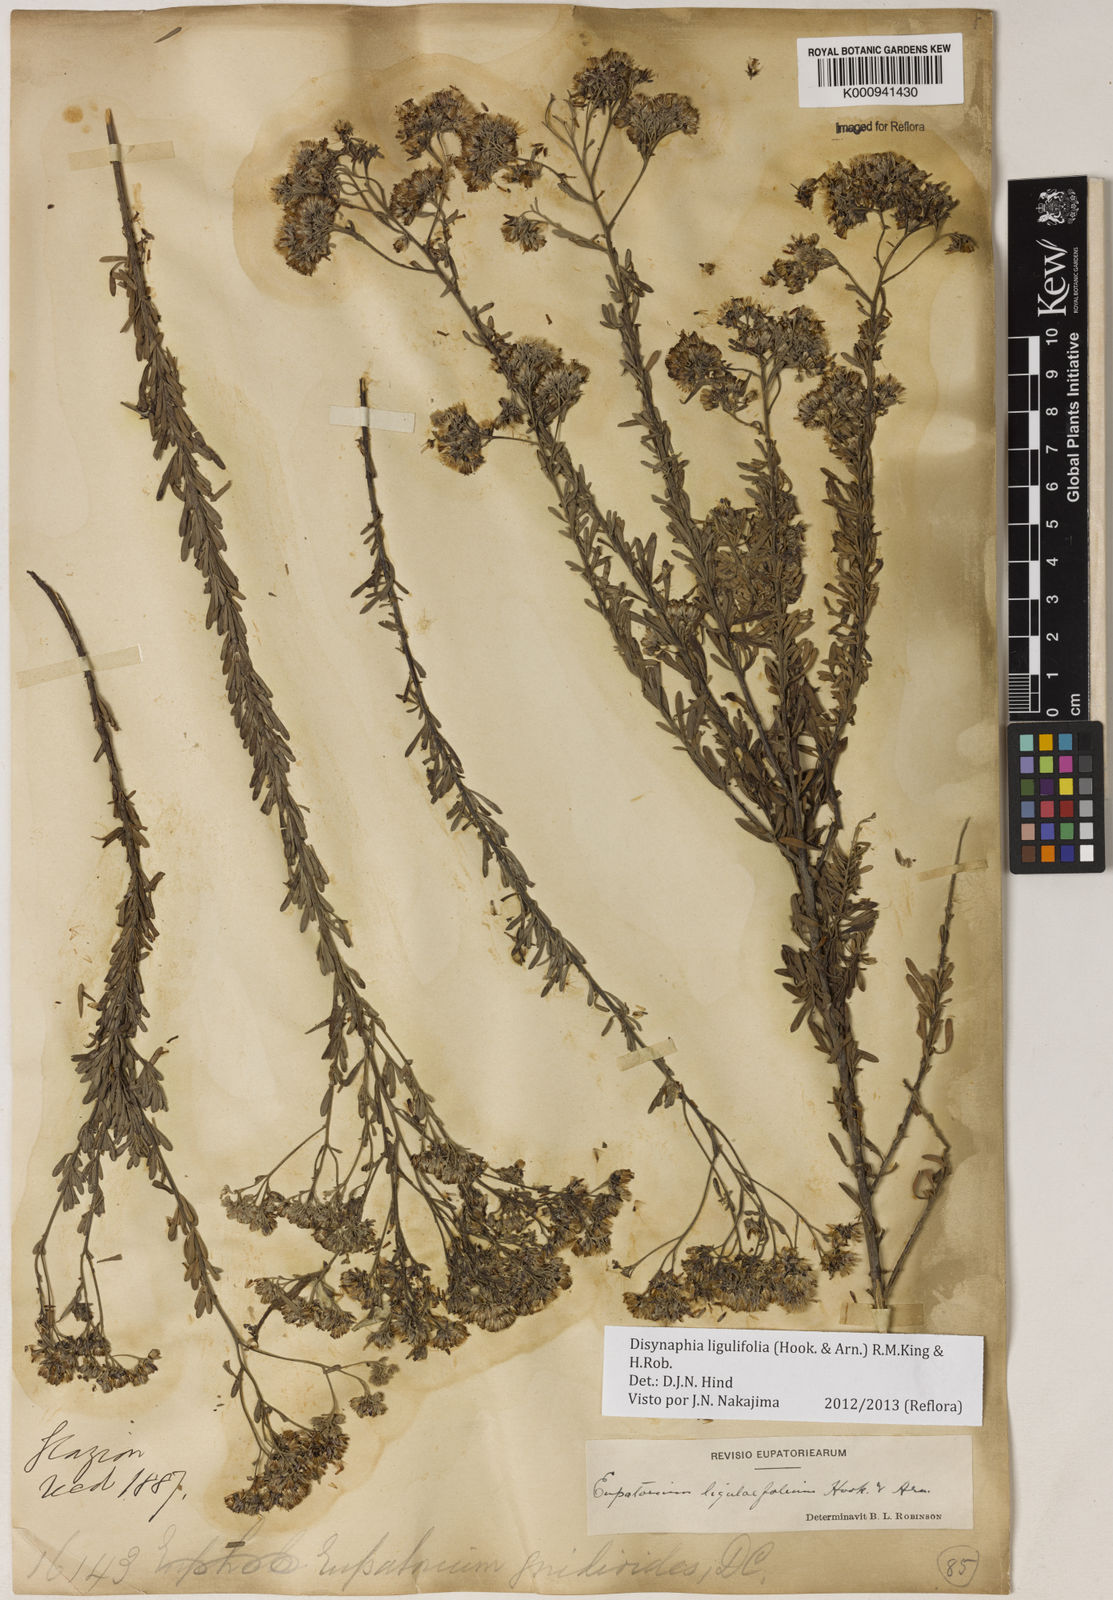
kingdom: Plantae
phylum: Tracheophyta
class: Magnoliopsida
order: Asterales
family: Asteraceae
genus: Disynaphia
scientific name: Disynaphia ligulifolia
